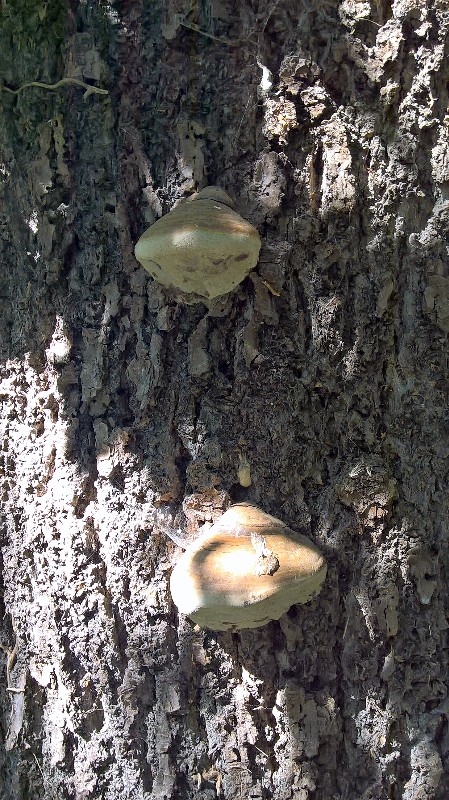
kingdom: Fungi
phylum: Basidiomycota
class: Agaricomycetes
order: Polyporales
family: Polyporaceae
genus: Ganoderma
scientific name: Ganoderma adspersum
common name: grov lakporesvamp
